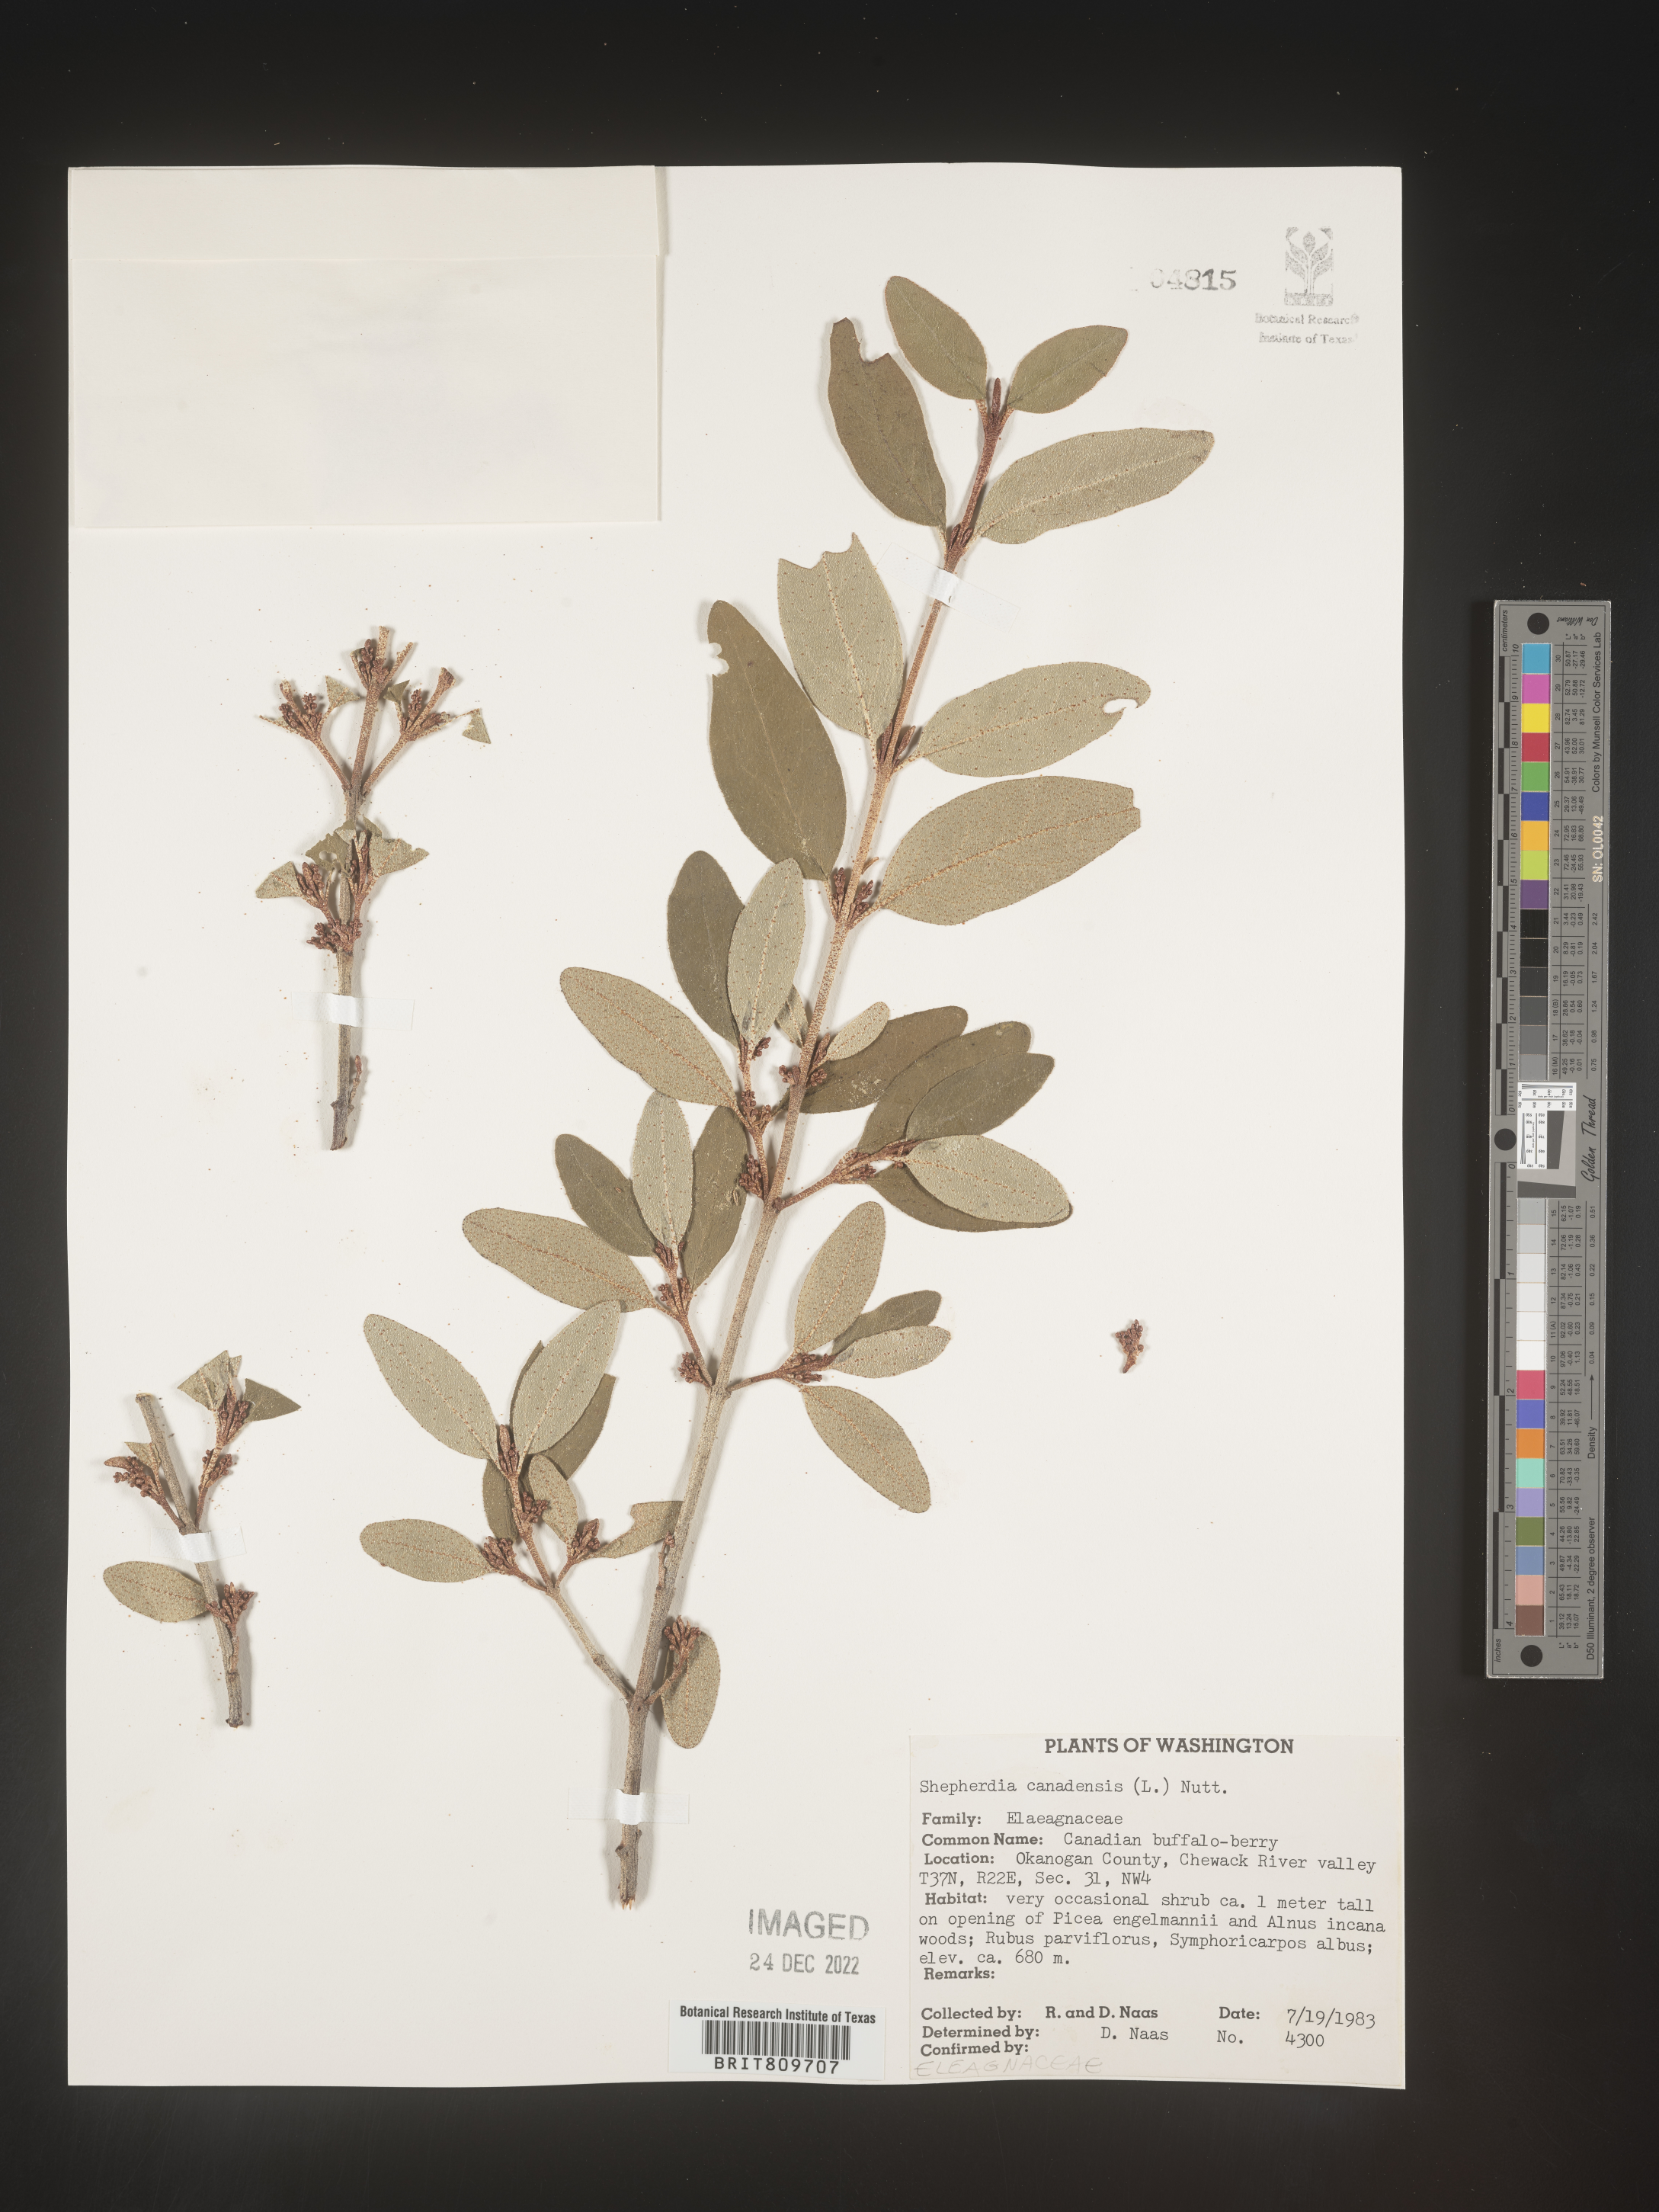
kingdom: Plantae
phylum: Tracheophyta
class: Magnoliopsida
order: Rosales
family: Elaeagnaceae
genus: Shepherdia
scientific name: Shepherdia canadensis
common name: Soapberry
